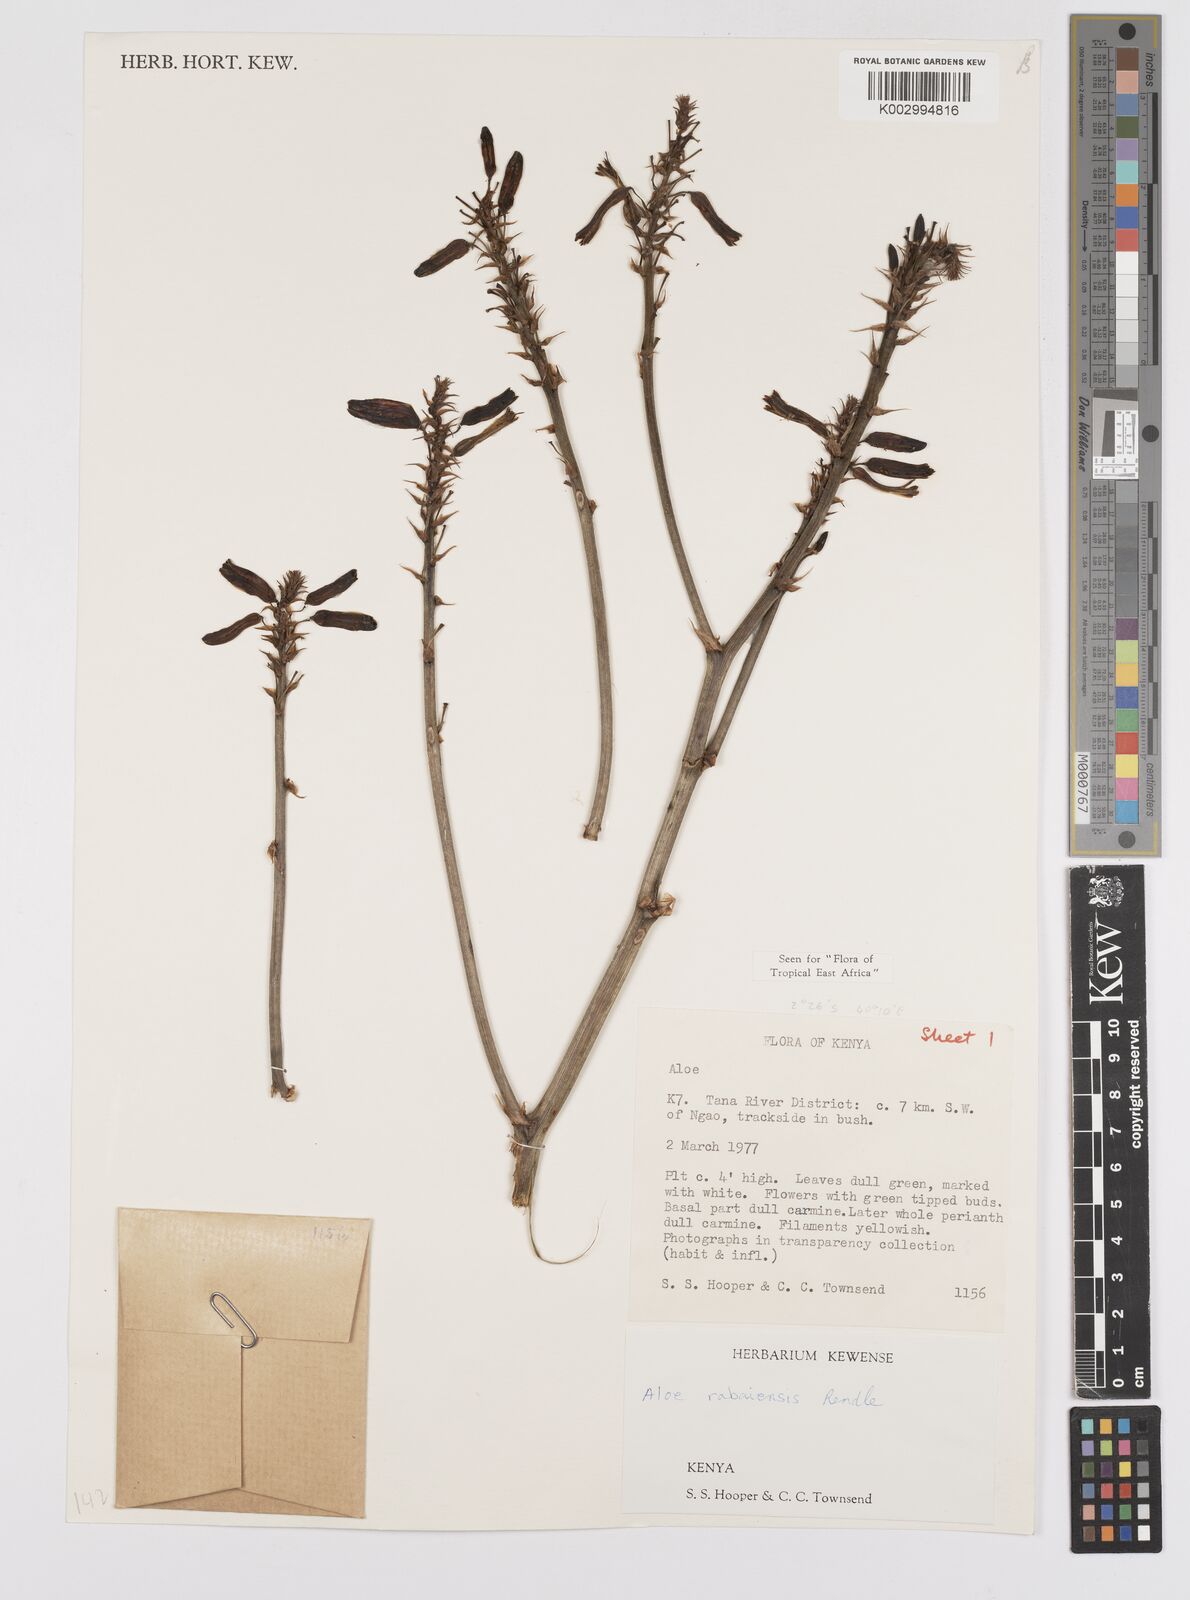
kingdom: Plantae
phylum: Tracheophyta
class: Liliopsida
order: Asparagales
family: Asphodelaceae
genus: Aloe
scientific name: Aloe rabaiensis
